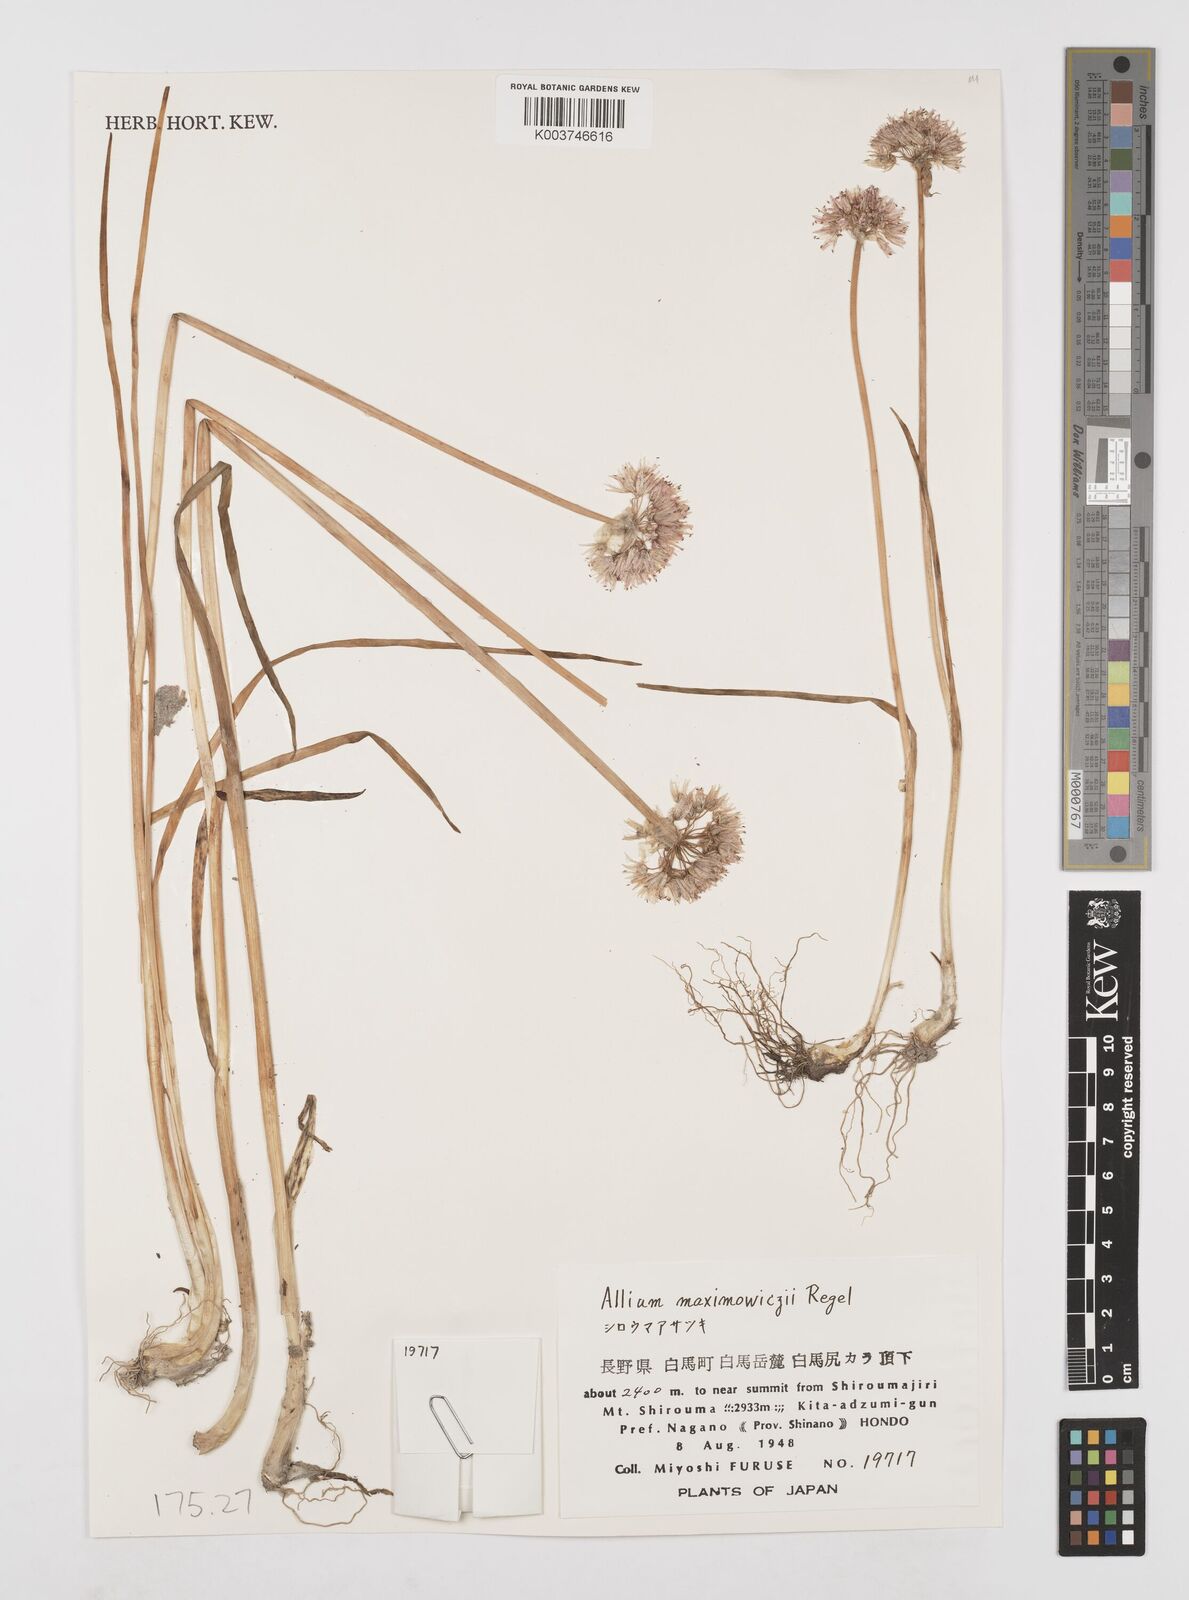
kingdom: Plantae
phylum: Tracheophyta
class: Liliopsida
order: Asparagales
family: Amaryllidaceae
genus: Allium
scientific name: Allium maximowiczii
